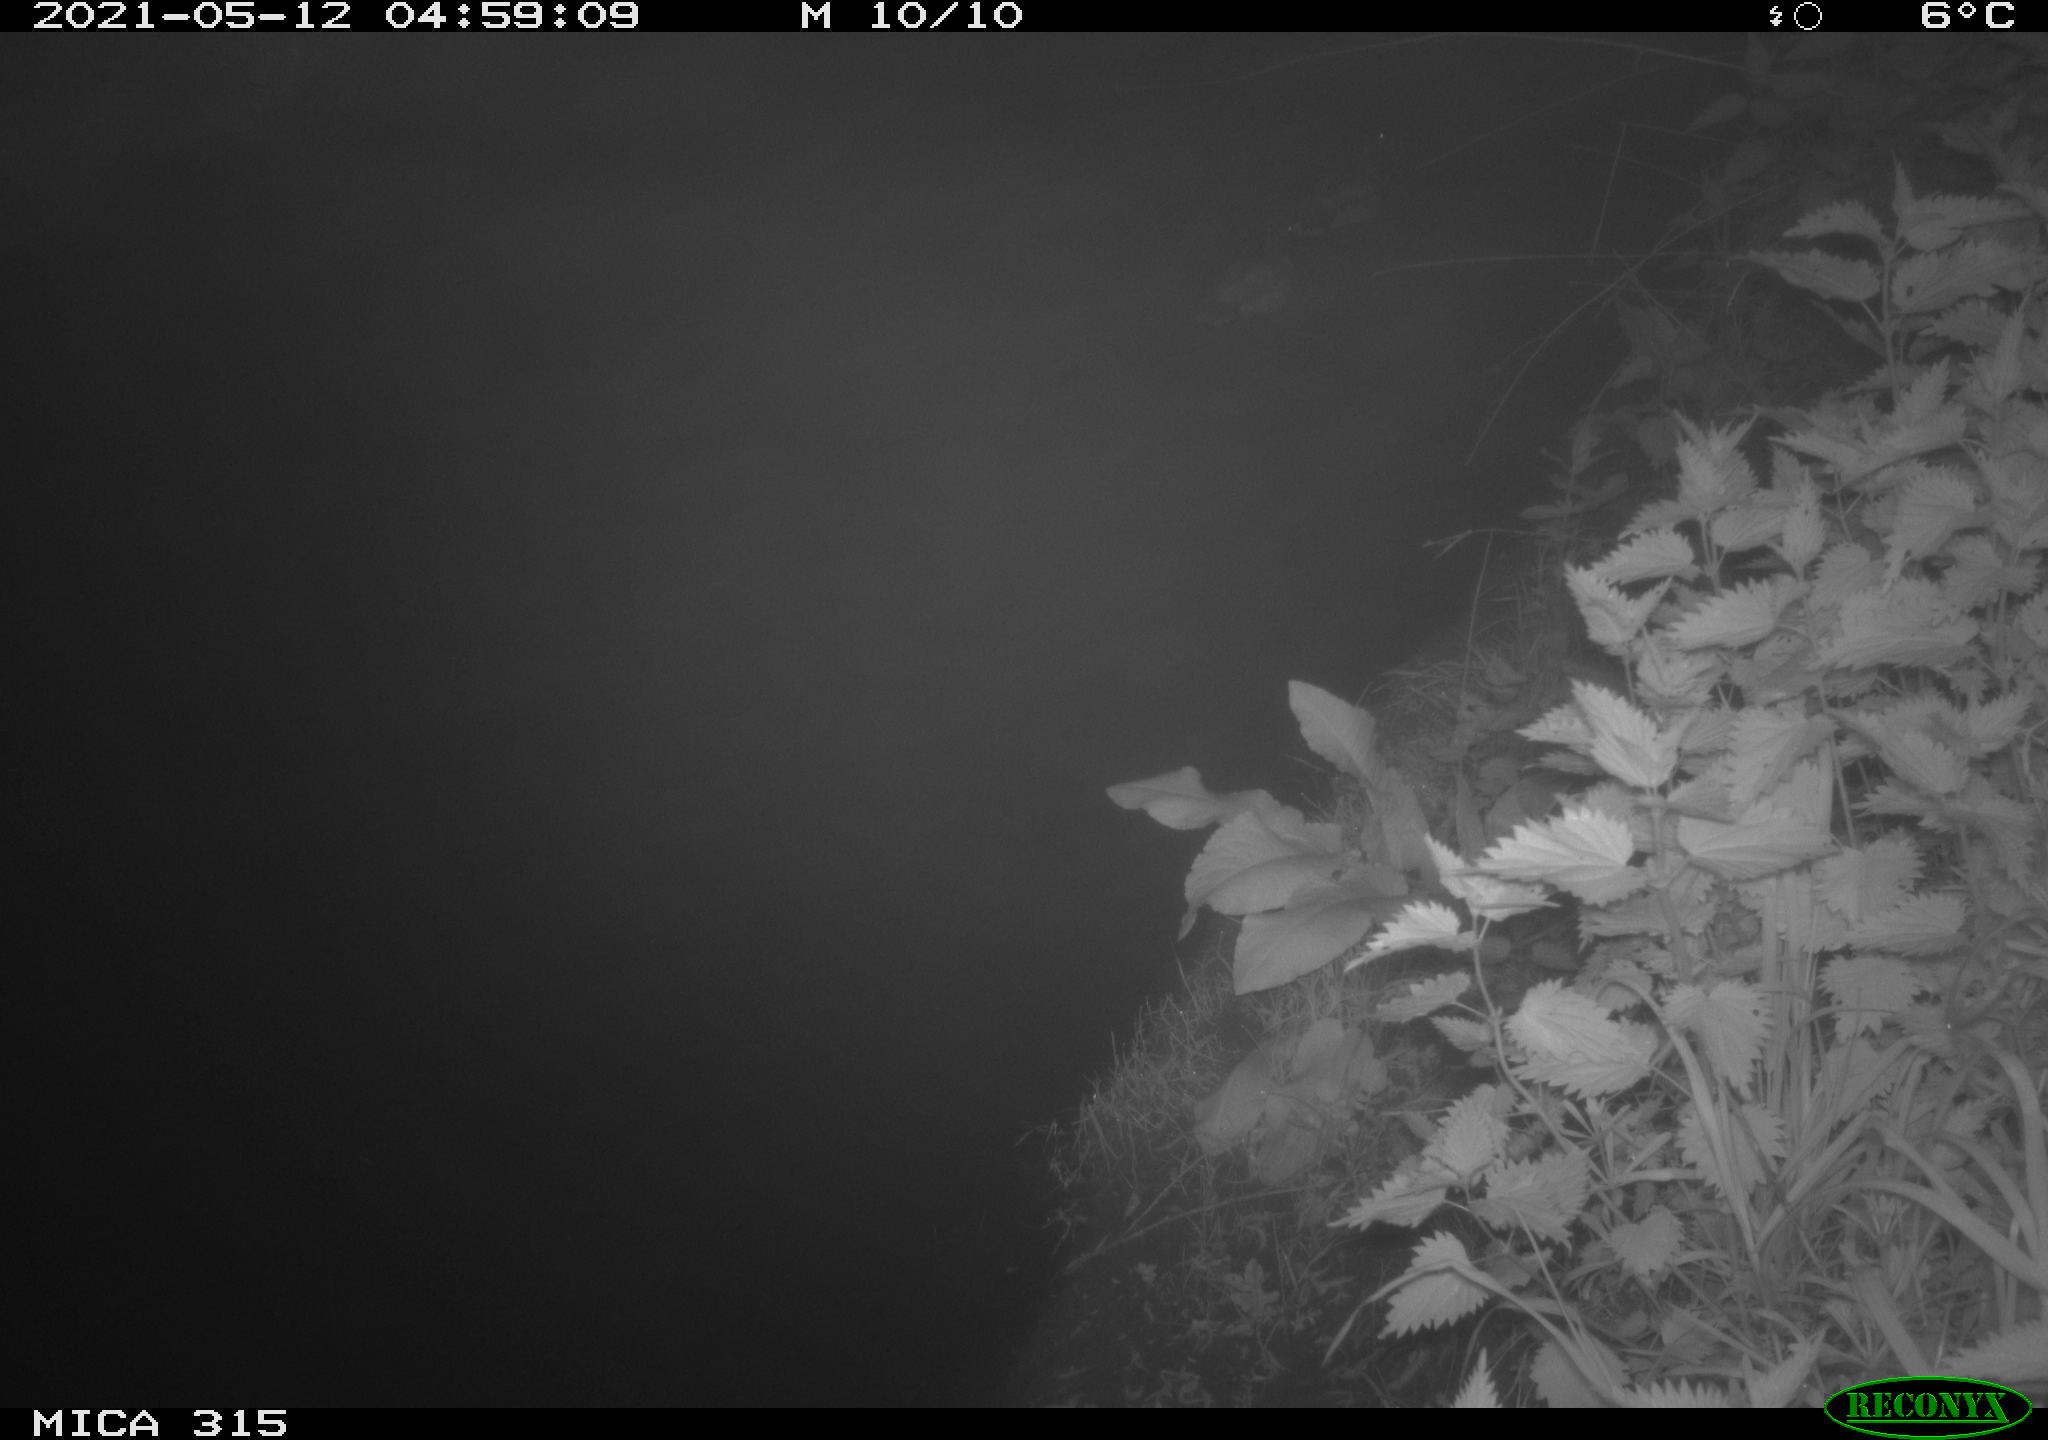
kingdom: Animalia
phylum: Chordata
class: Aves
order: Anseriformes
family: Anatidae
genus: Anas
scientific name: Anas
